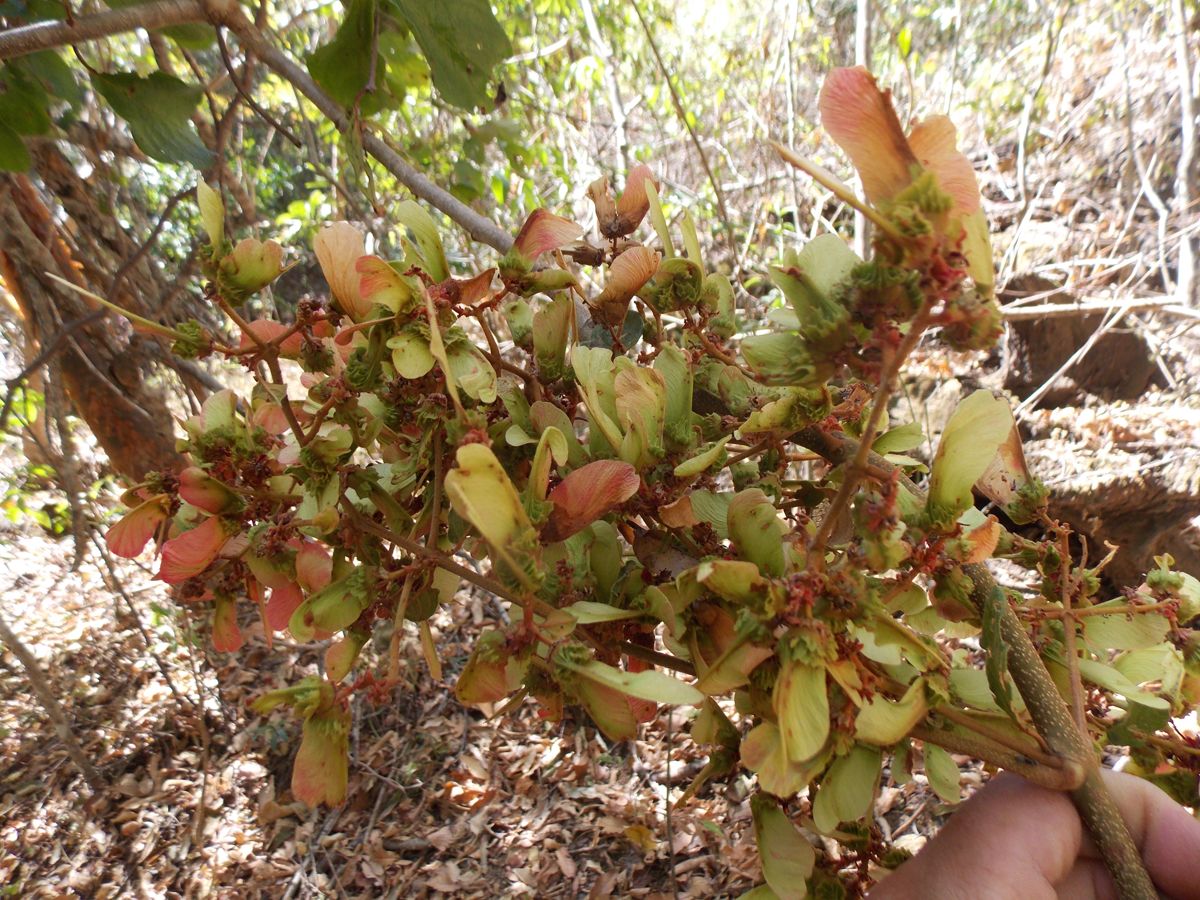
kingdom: Plantae
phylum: Tracheophyta
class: Magnoliopsida
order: Malpighiales
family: Malpighiaceae
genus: Heteropterys
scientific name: Heteropterys brachiata
